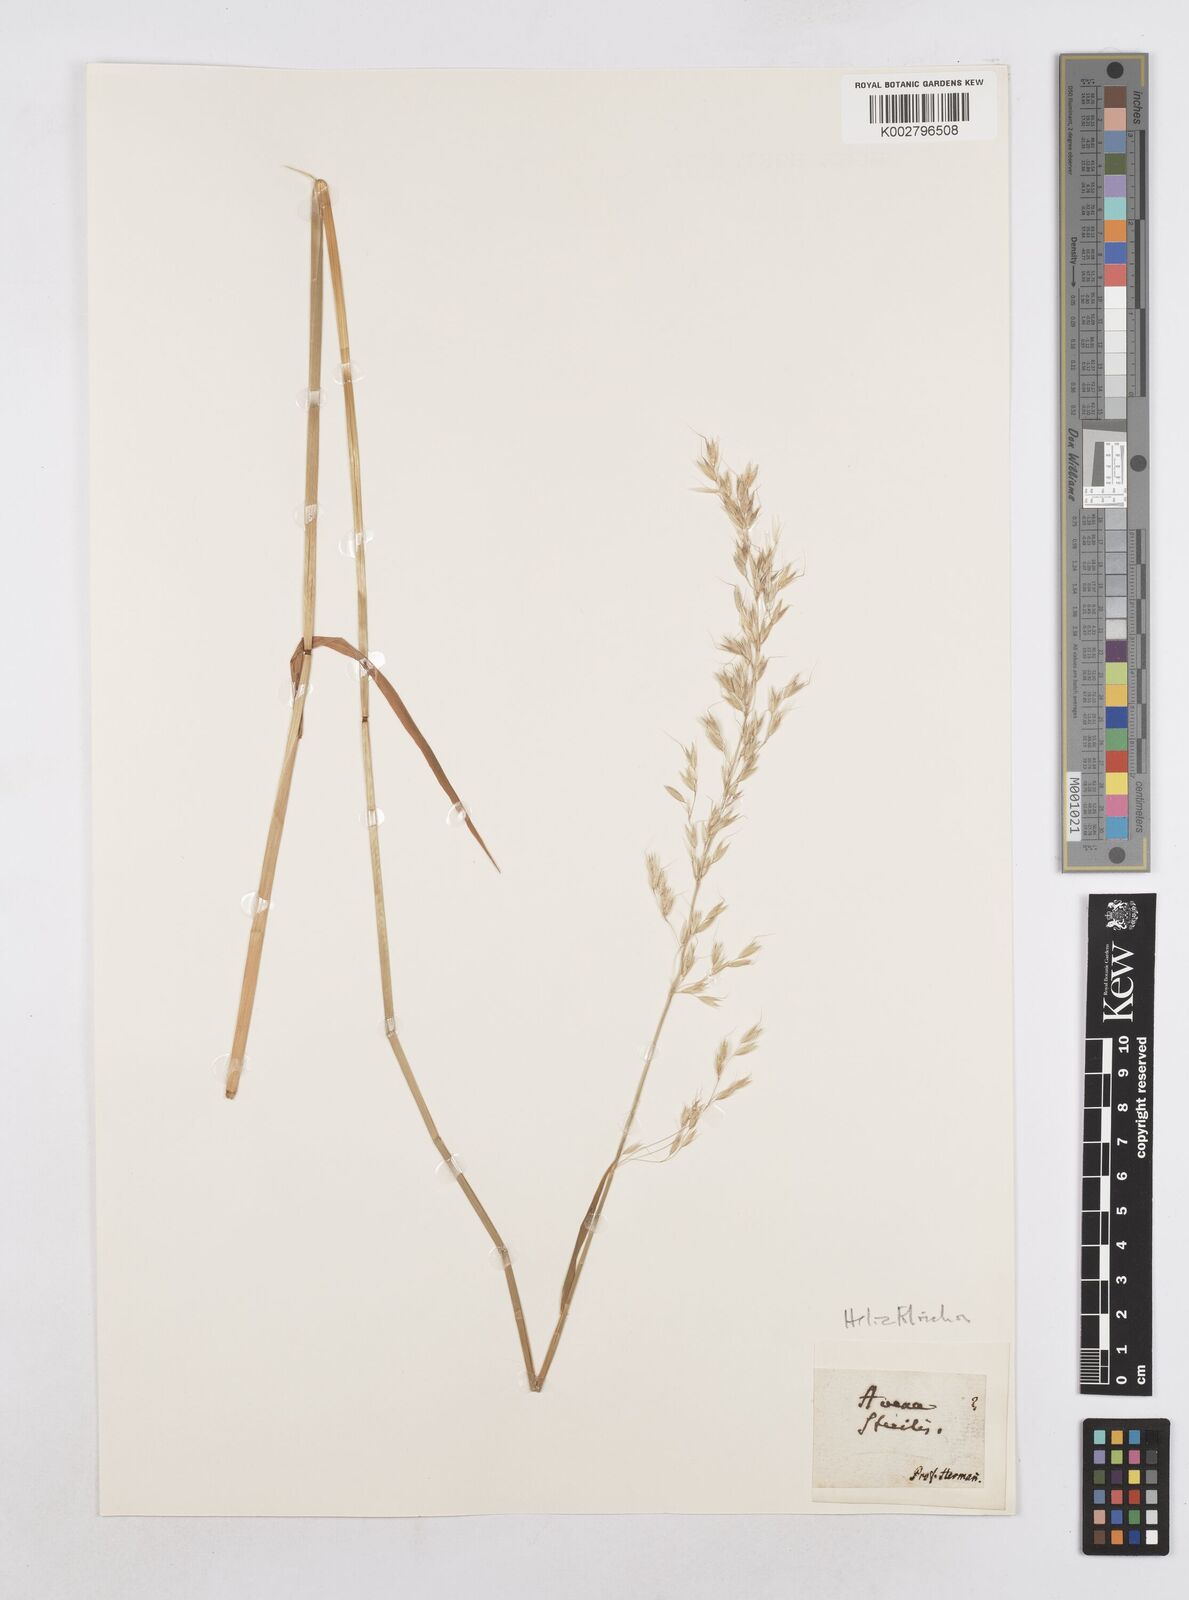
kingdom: Plantae
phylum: Tracheophyta
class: Liliopsida
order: Poales
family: Poaceae
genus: Arrhenatherum
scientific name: Arrhenatherum elatius
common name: Tall oatgrass
